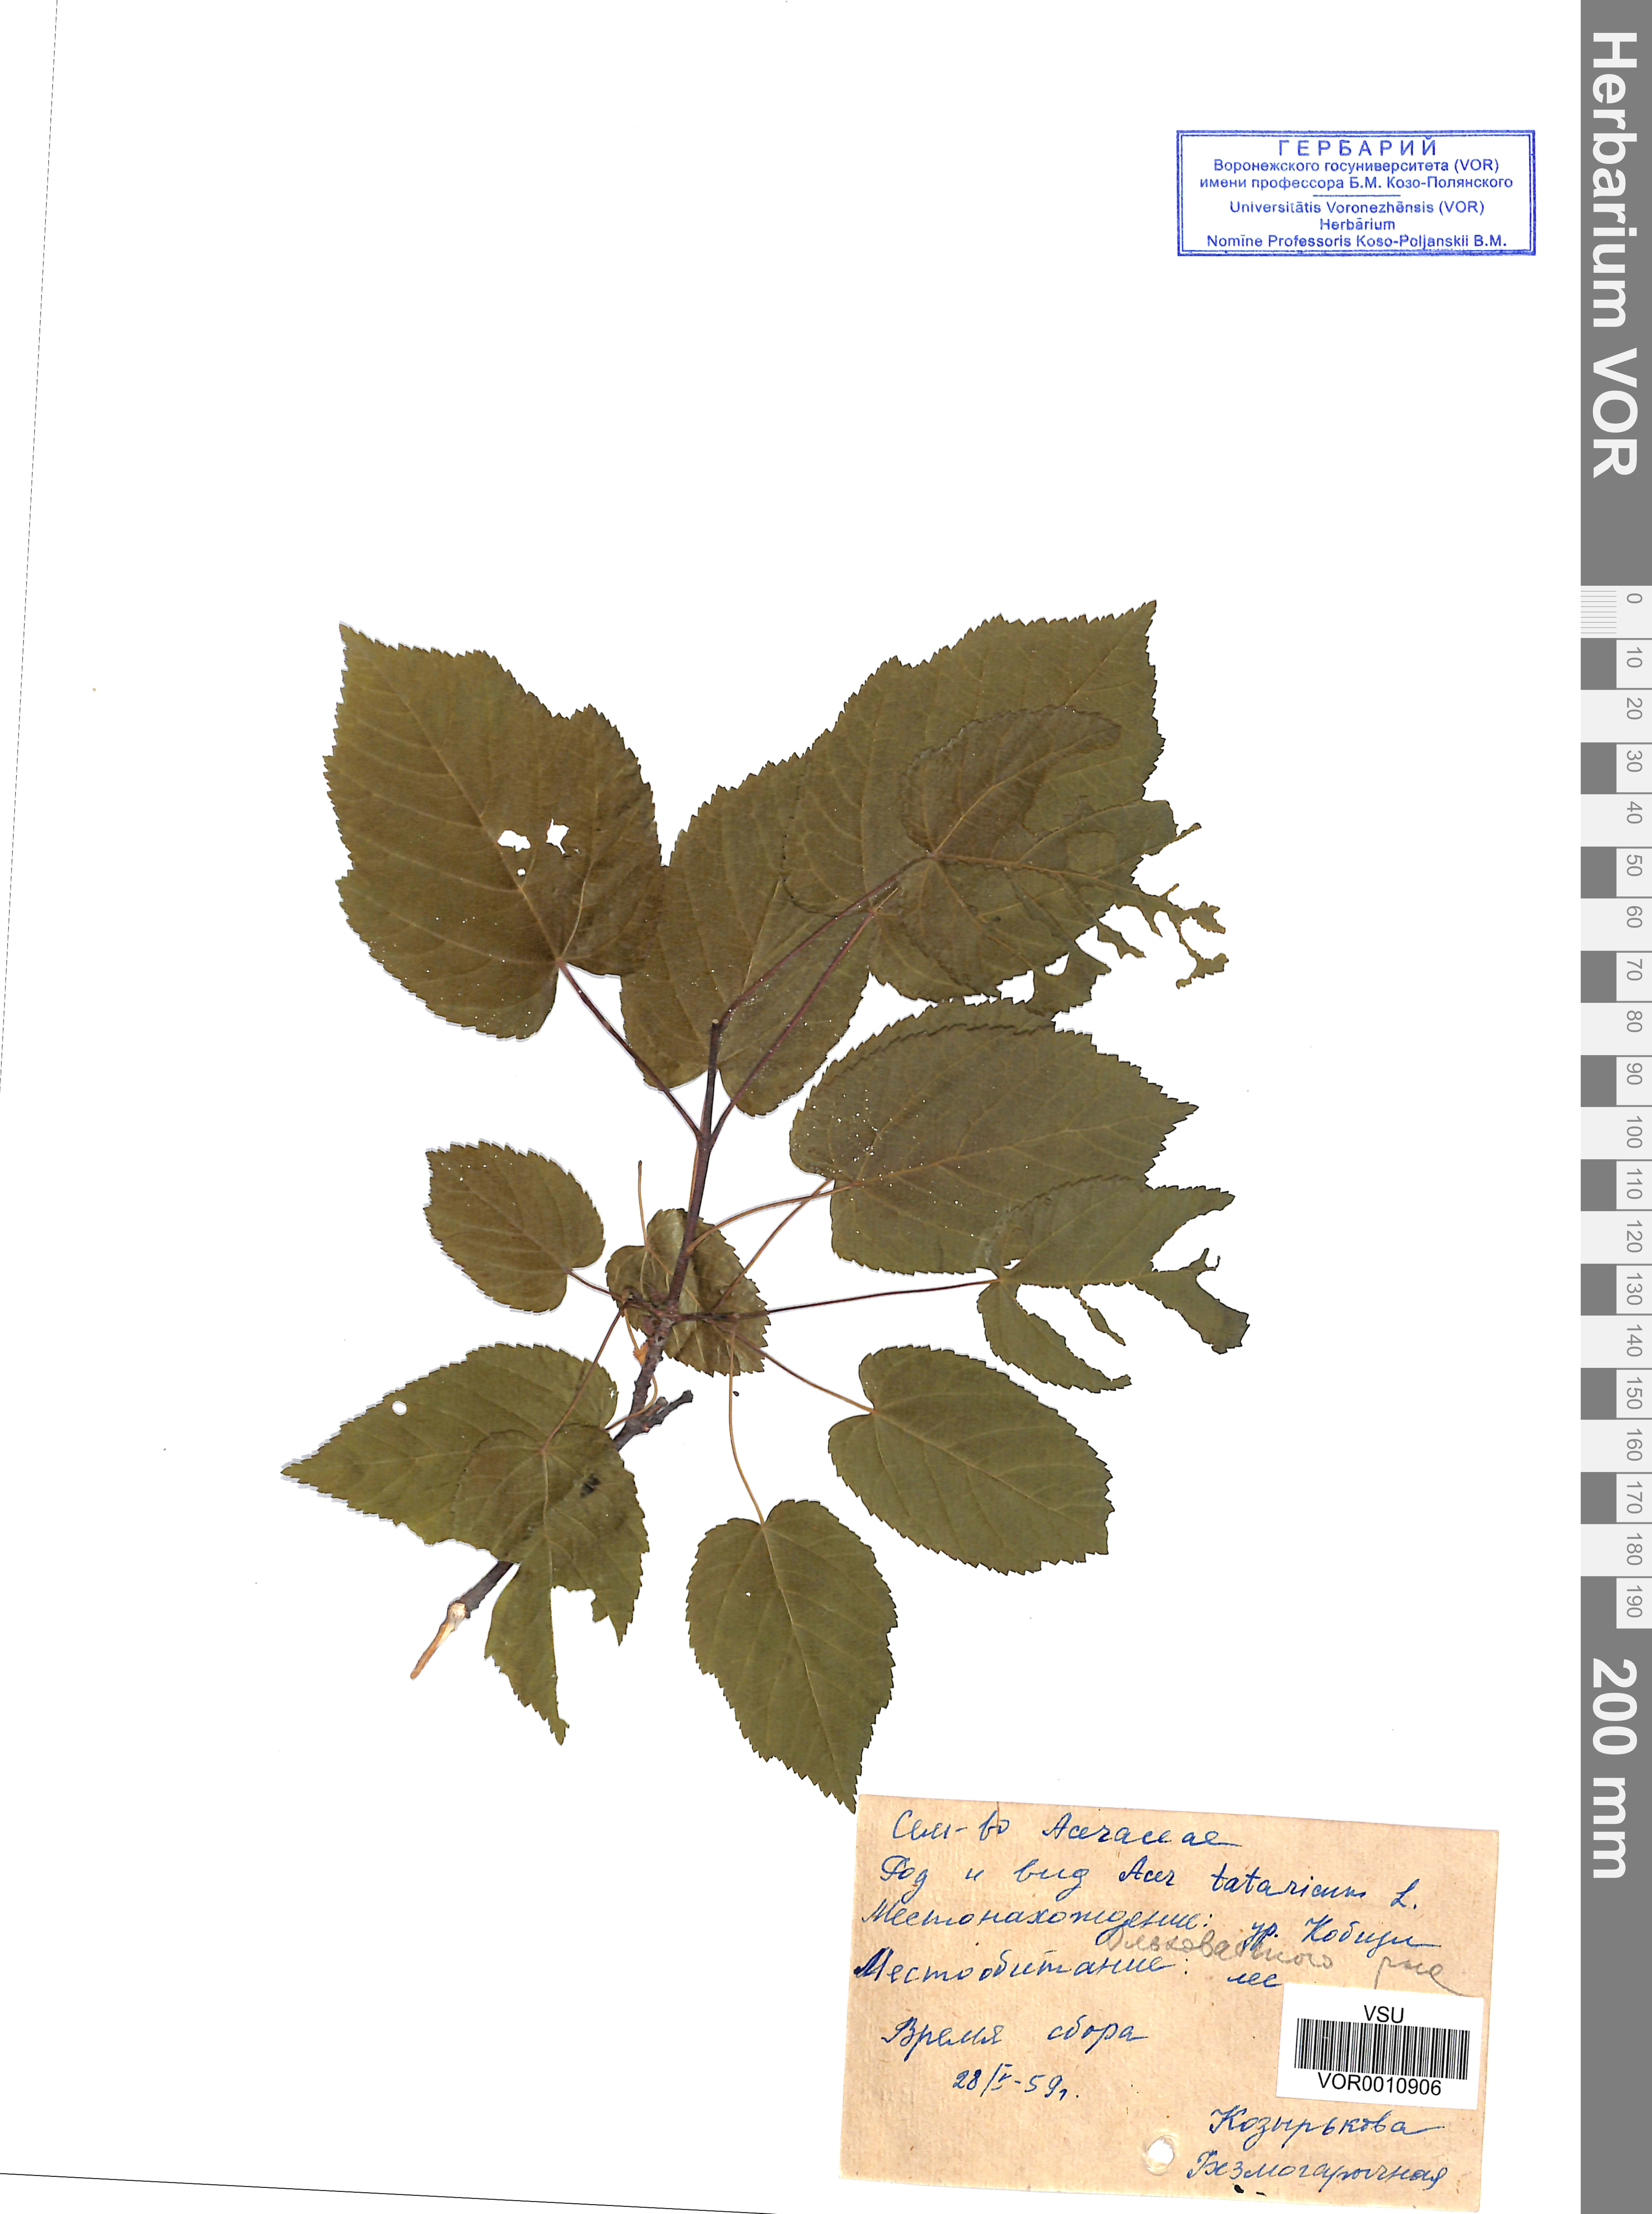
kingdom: Plantae
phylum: Tracheophyta
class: Magnoliopsida
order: Sapindales
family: Sapindaceae
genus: Acer
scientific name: Acer tataricum
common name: Tartar maple
